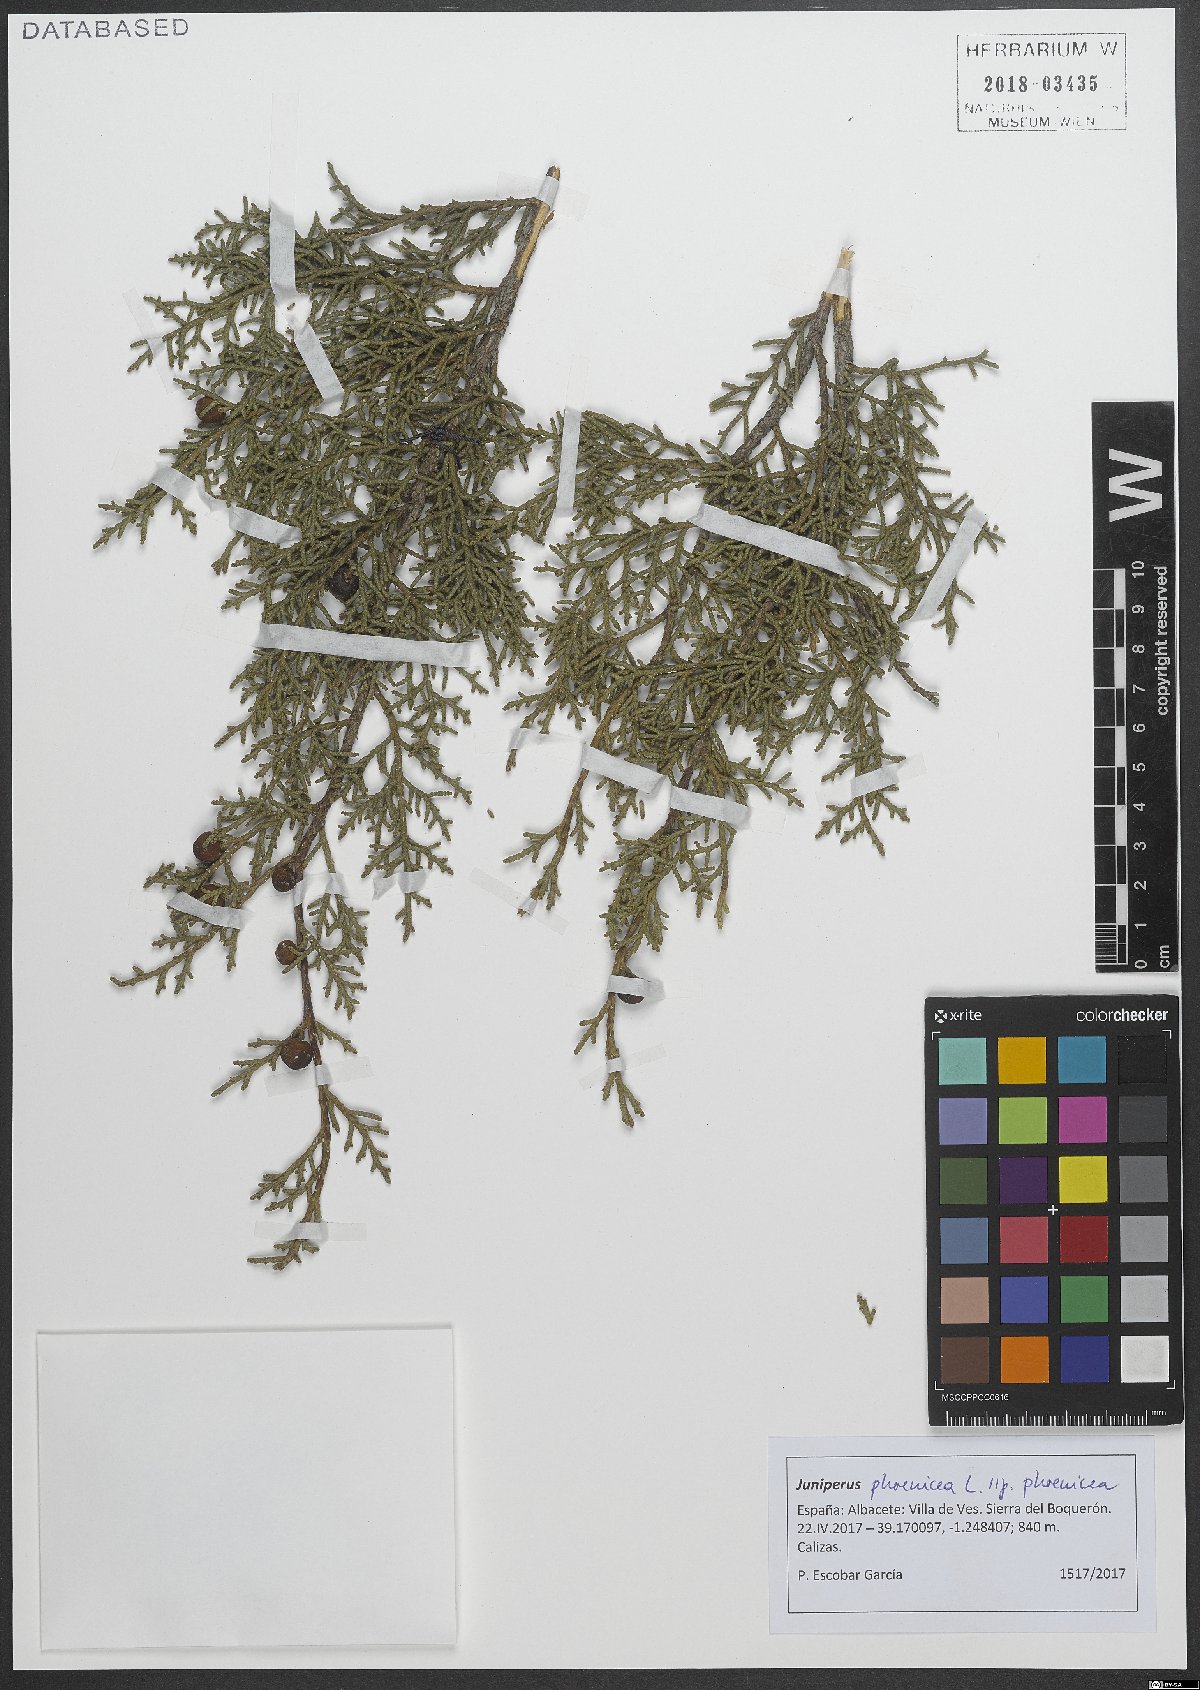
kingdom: Plantae
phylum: Tracheophyta
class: Pinopsida
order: Pinales
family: Cupressaceae
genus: Juniperus
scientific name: Juniperus phoenicea
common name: Phoenician juniper
